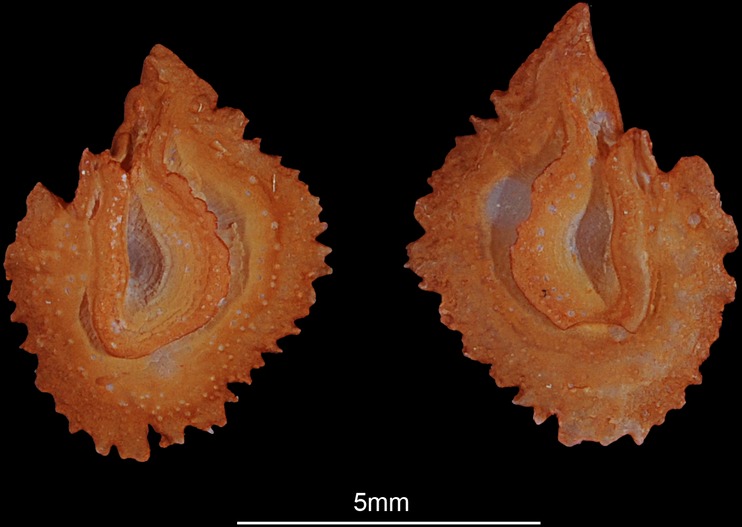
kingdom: Animalia
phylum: Chordata
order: Cypriniformes
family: Cyprinidae
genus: Squalius
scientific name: Squalius cephalus
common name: Chub
